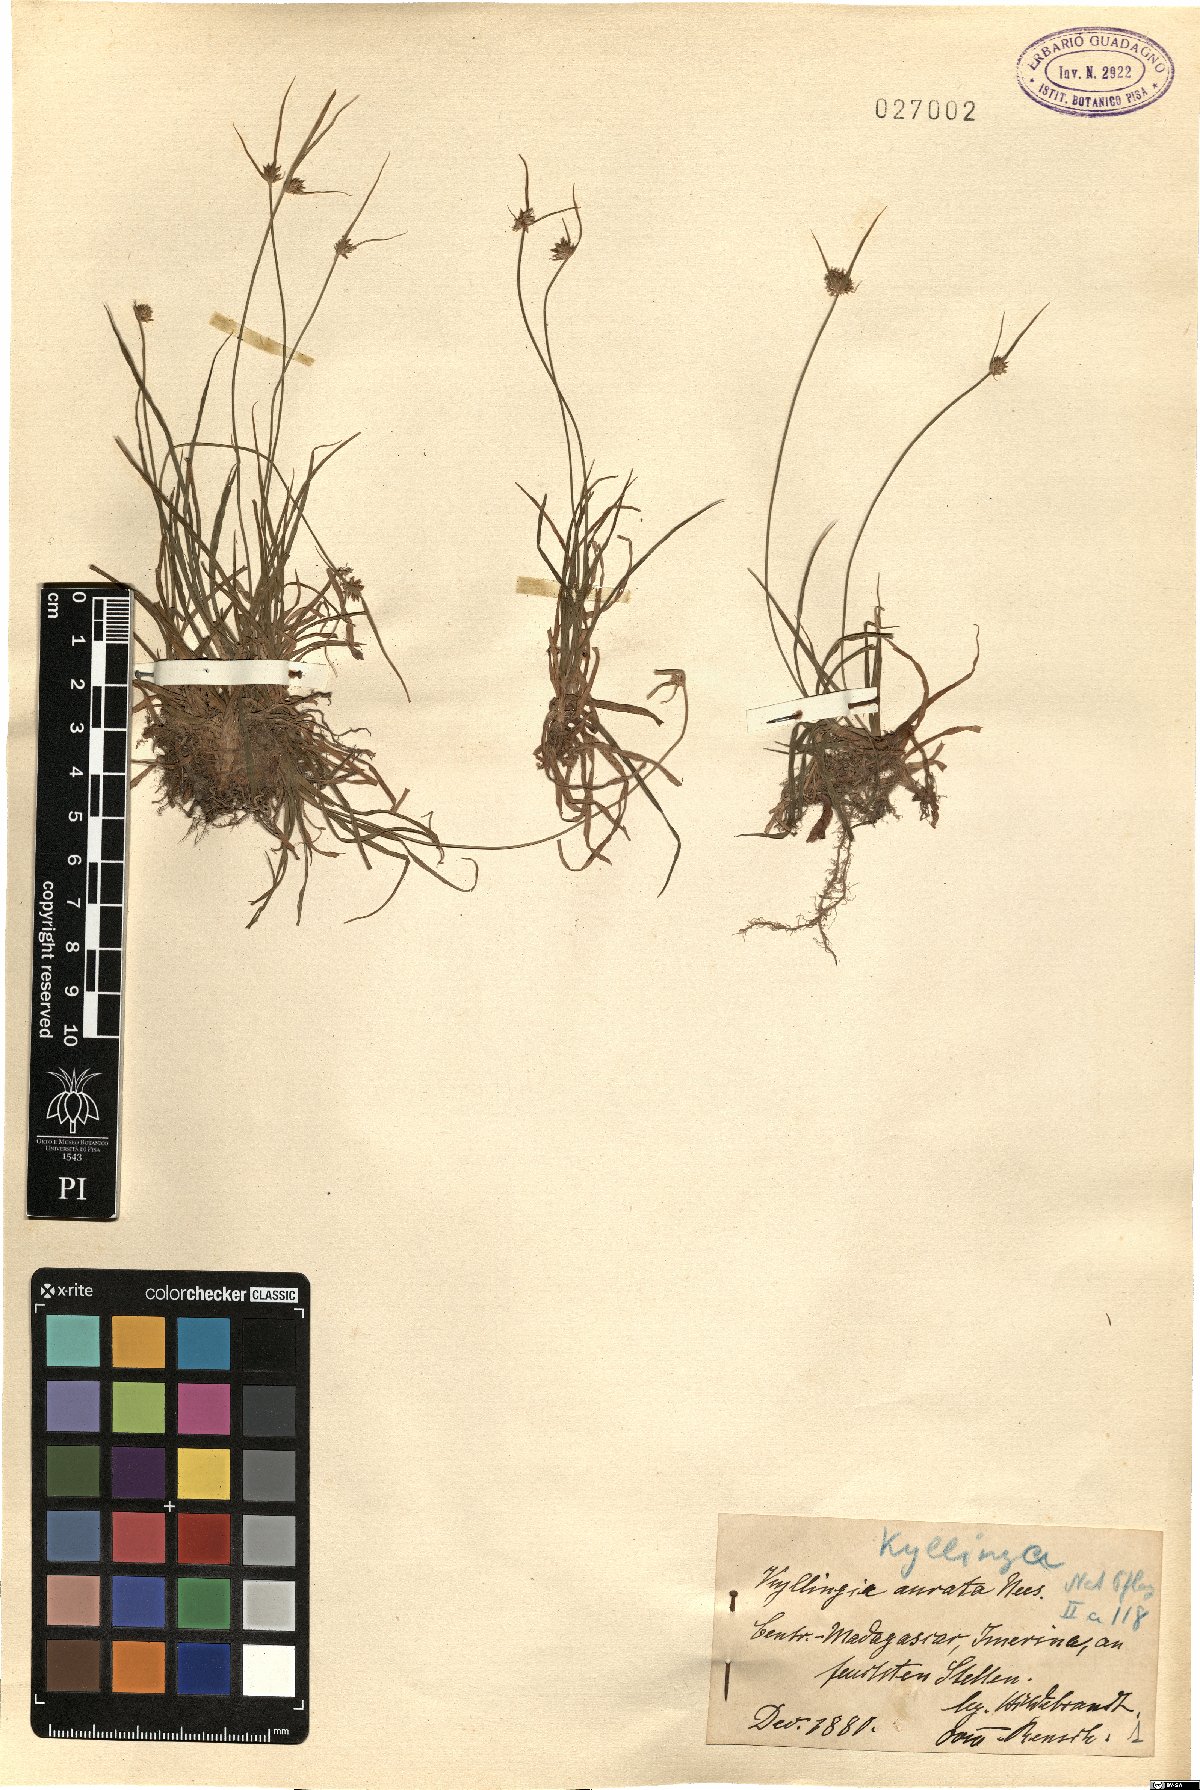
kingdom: Plantae
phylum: Tracheophyta
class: Liliopsida
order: Poales
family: Cyperaceae
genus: Cyperus
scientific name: Cyperus auratus
